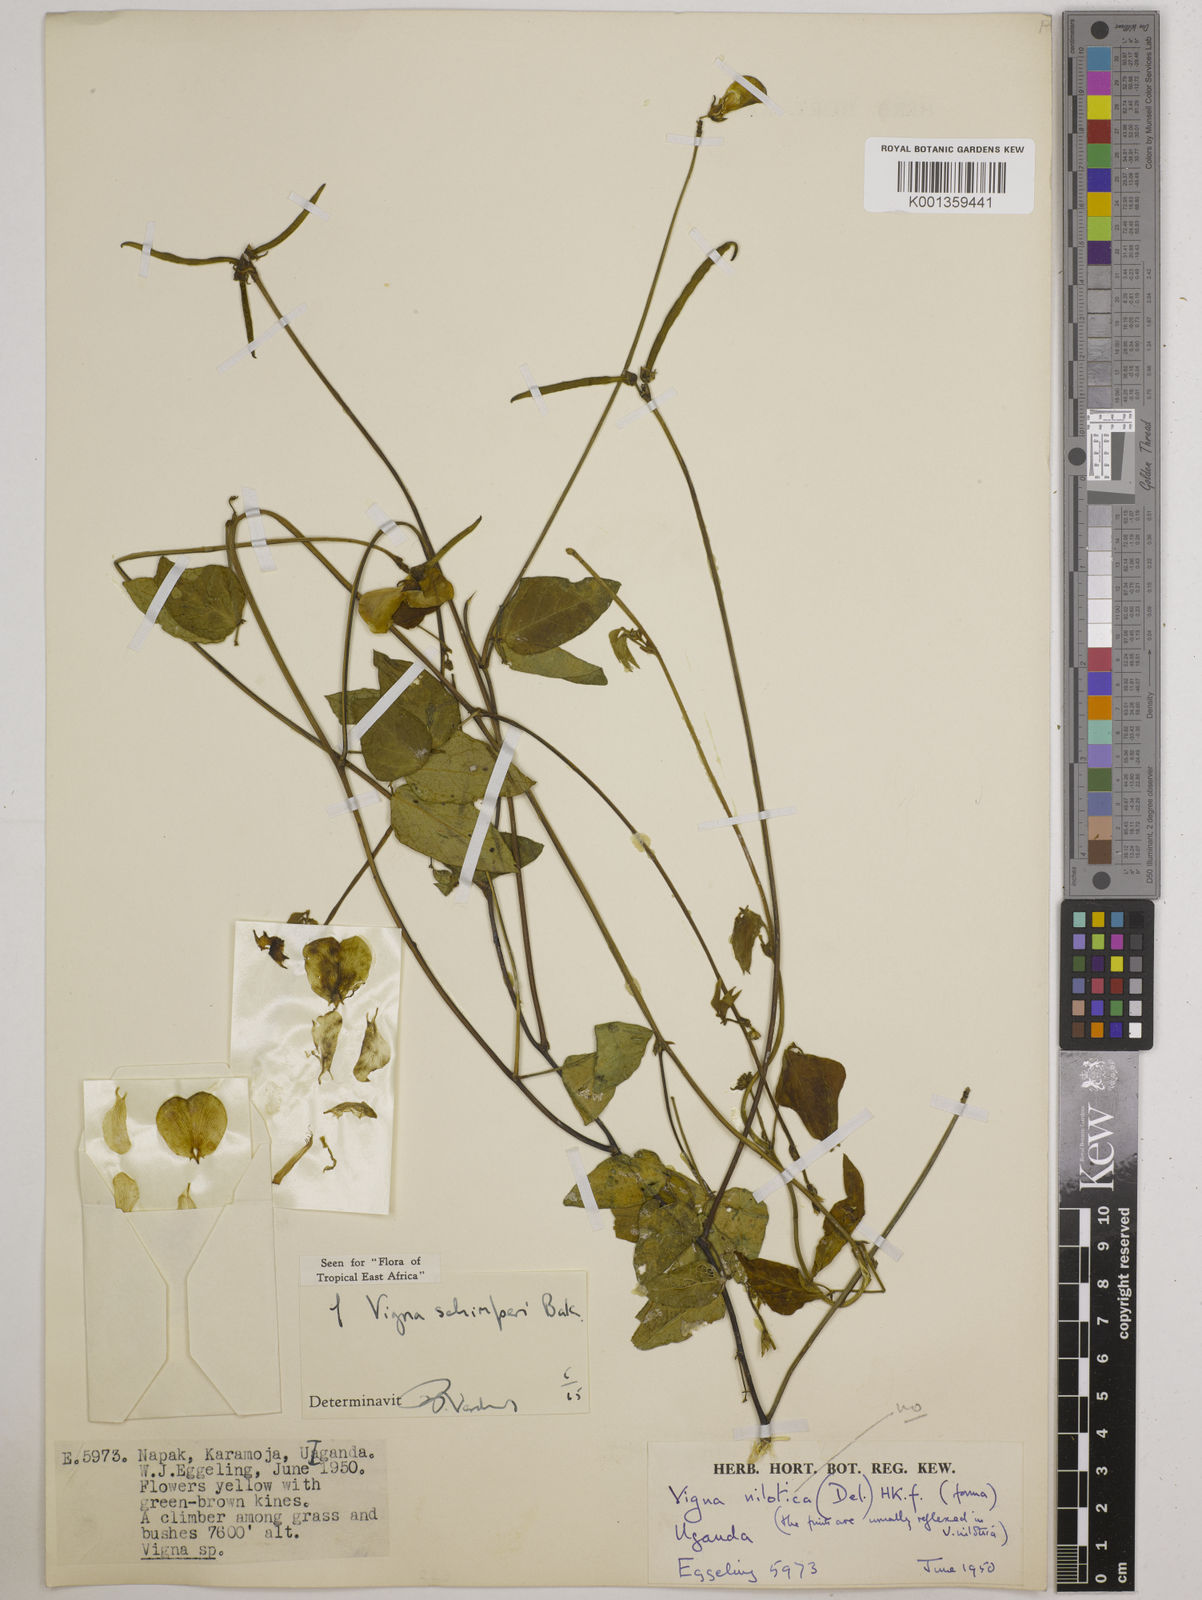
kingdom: Plantae
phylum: Tracheophyta
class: Magnoliopsida
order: Fabales
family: Fabaceae
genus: Vigna
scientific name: Vigna schimperi
